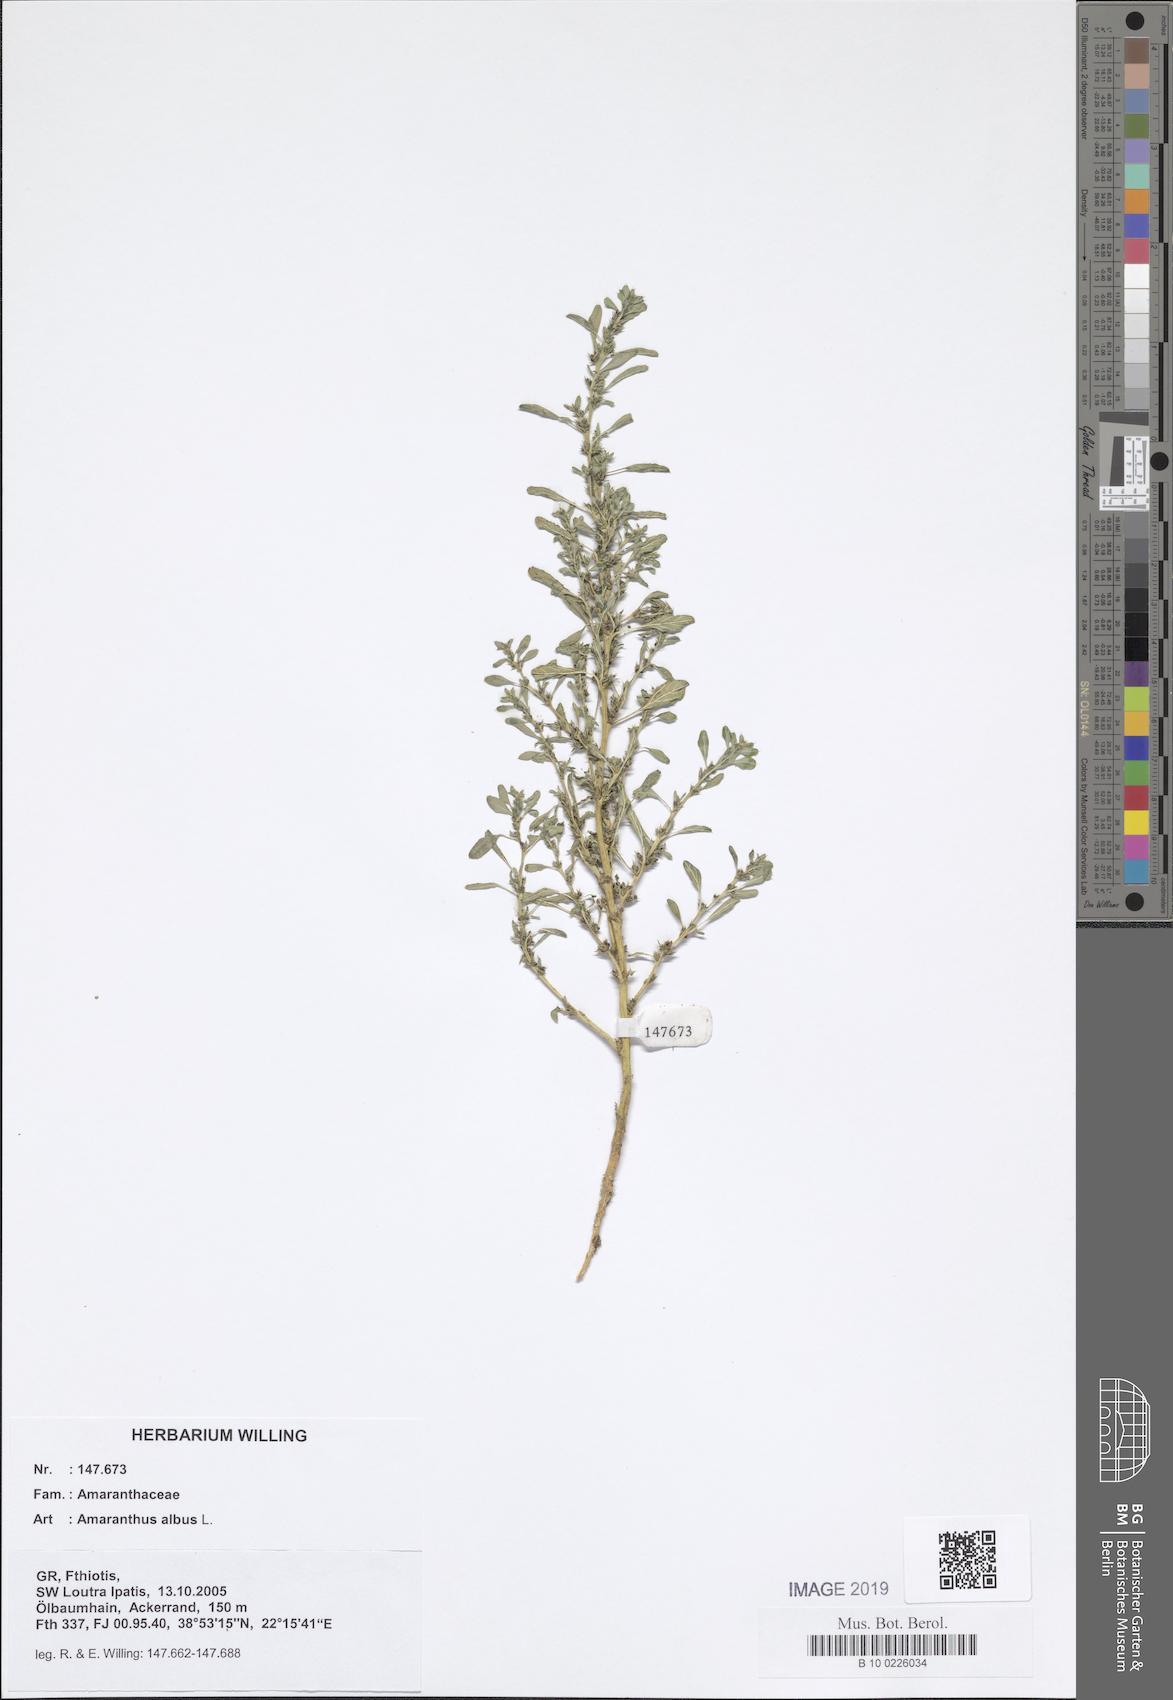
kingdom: Plantae
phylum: Tracheophyta
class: Magnoliopsida
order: Caryophyllales
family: Amaranthaceae
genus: Amaranthus
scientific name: Amaranthus albus
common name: White pigweed
